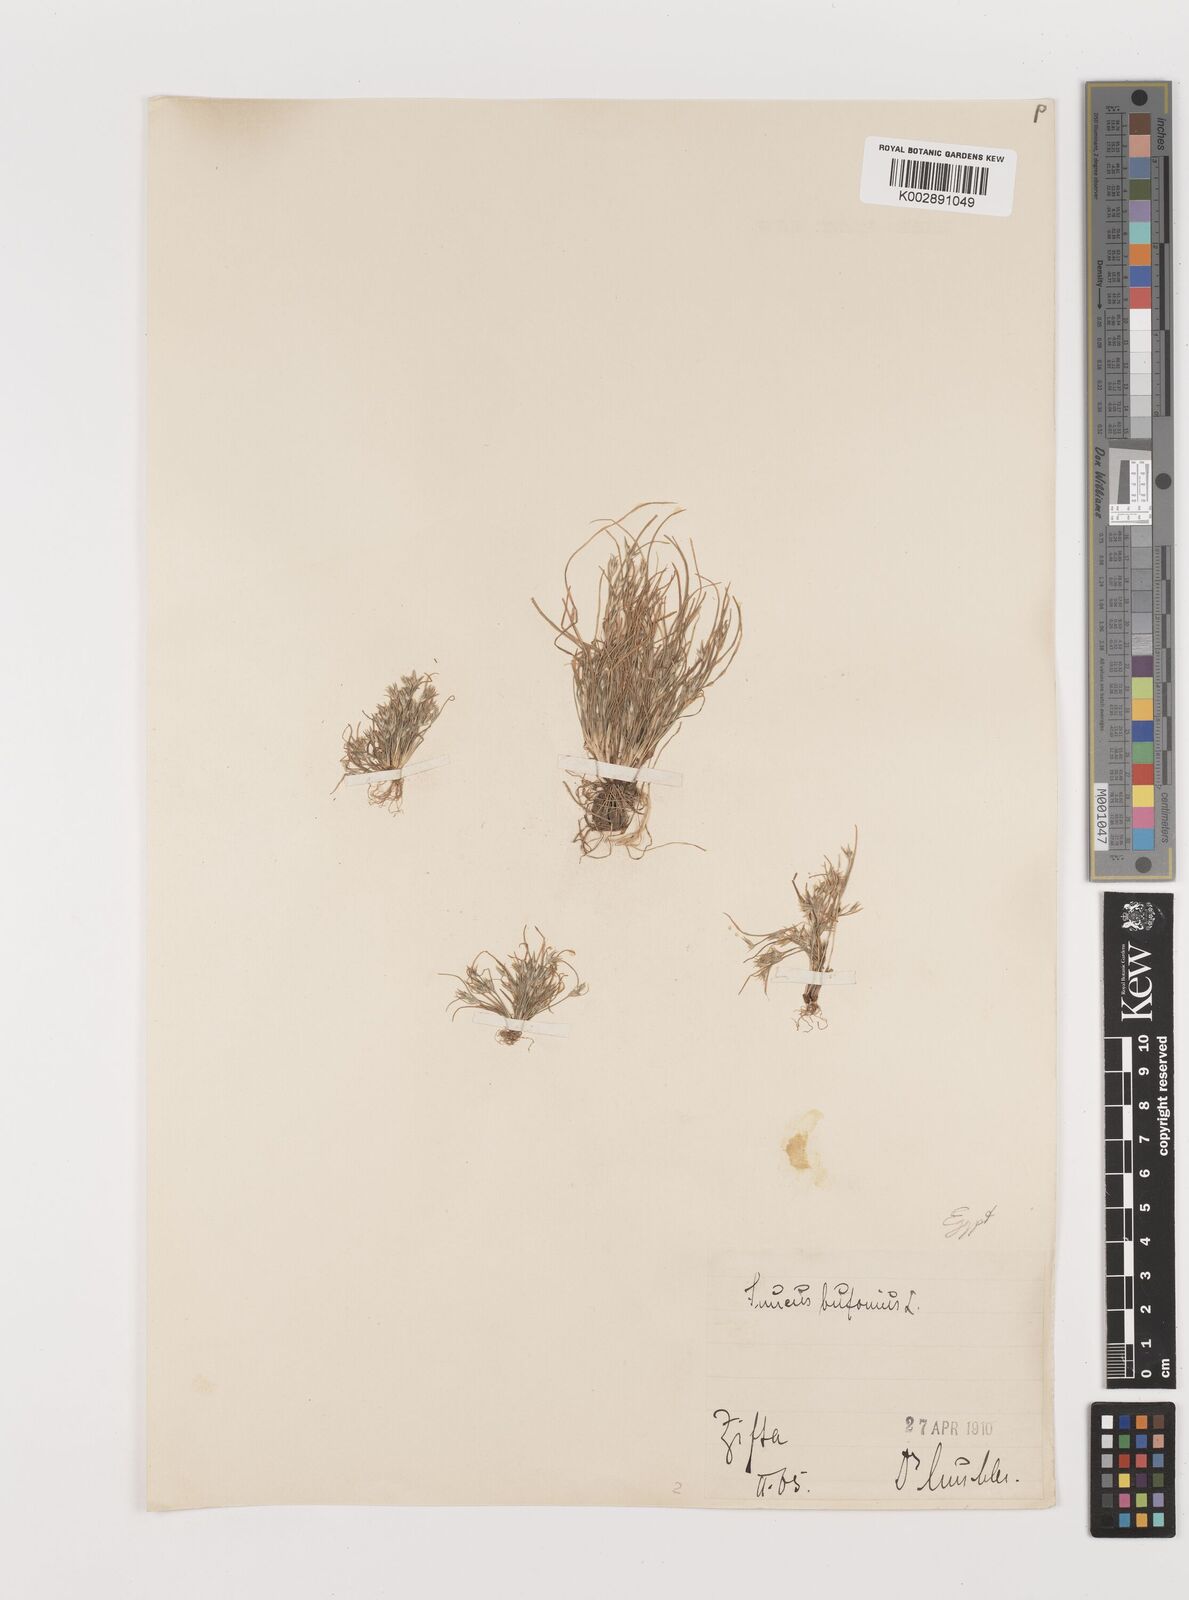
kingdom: Plantae
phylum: Tracheophyta
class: Liliopsida
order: Poales
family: Juncaceae
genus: Juncus
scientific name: Juncus bufonius
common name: Toad rush
